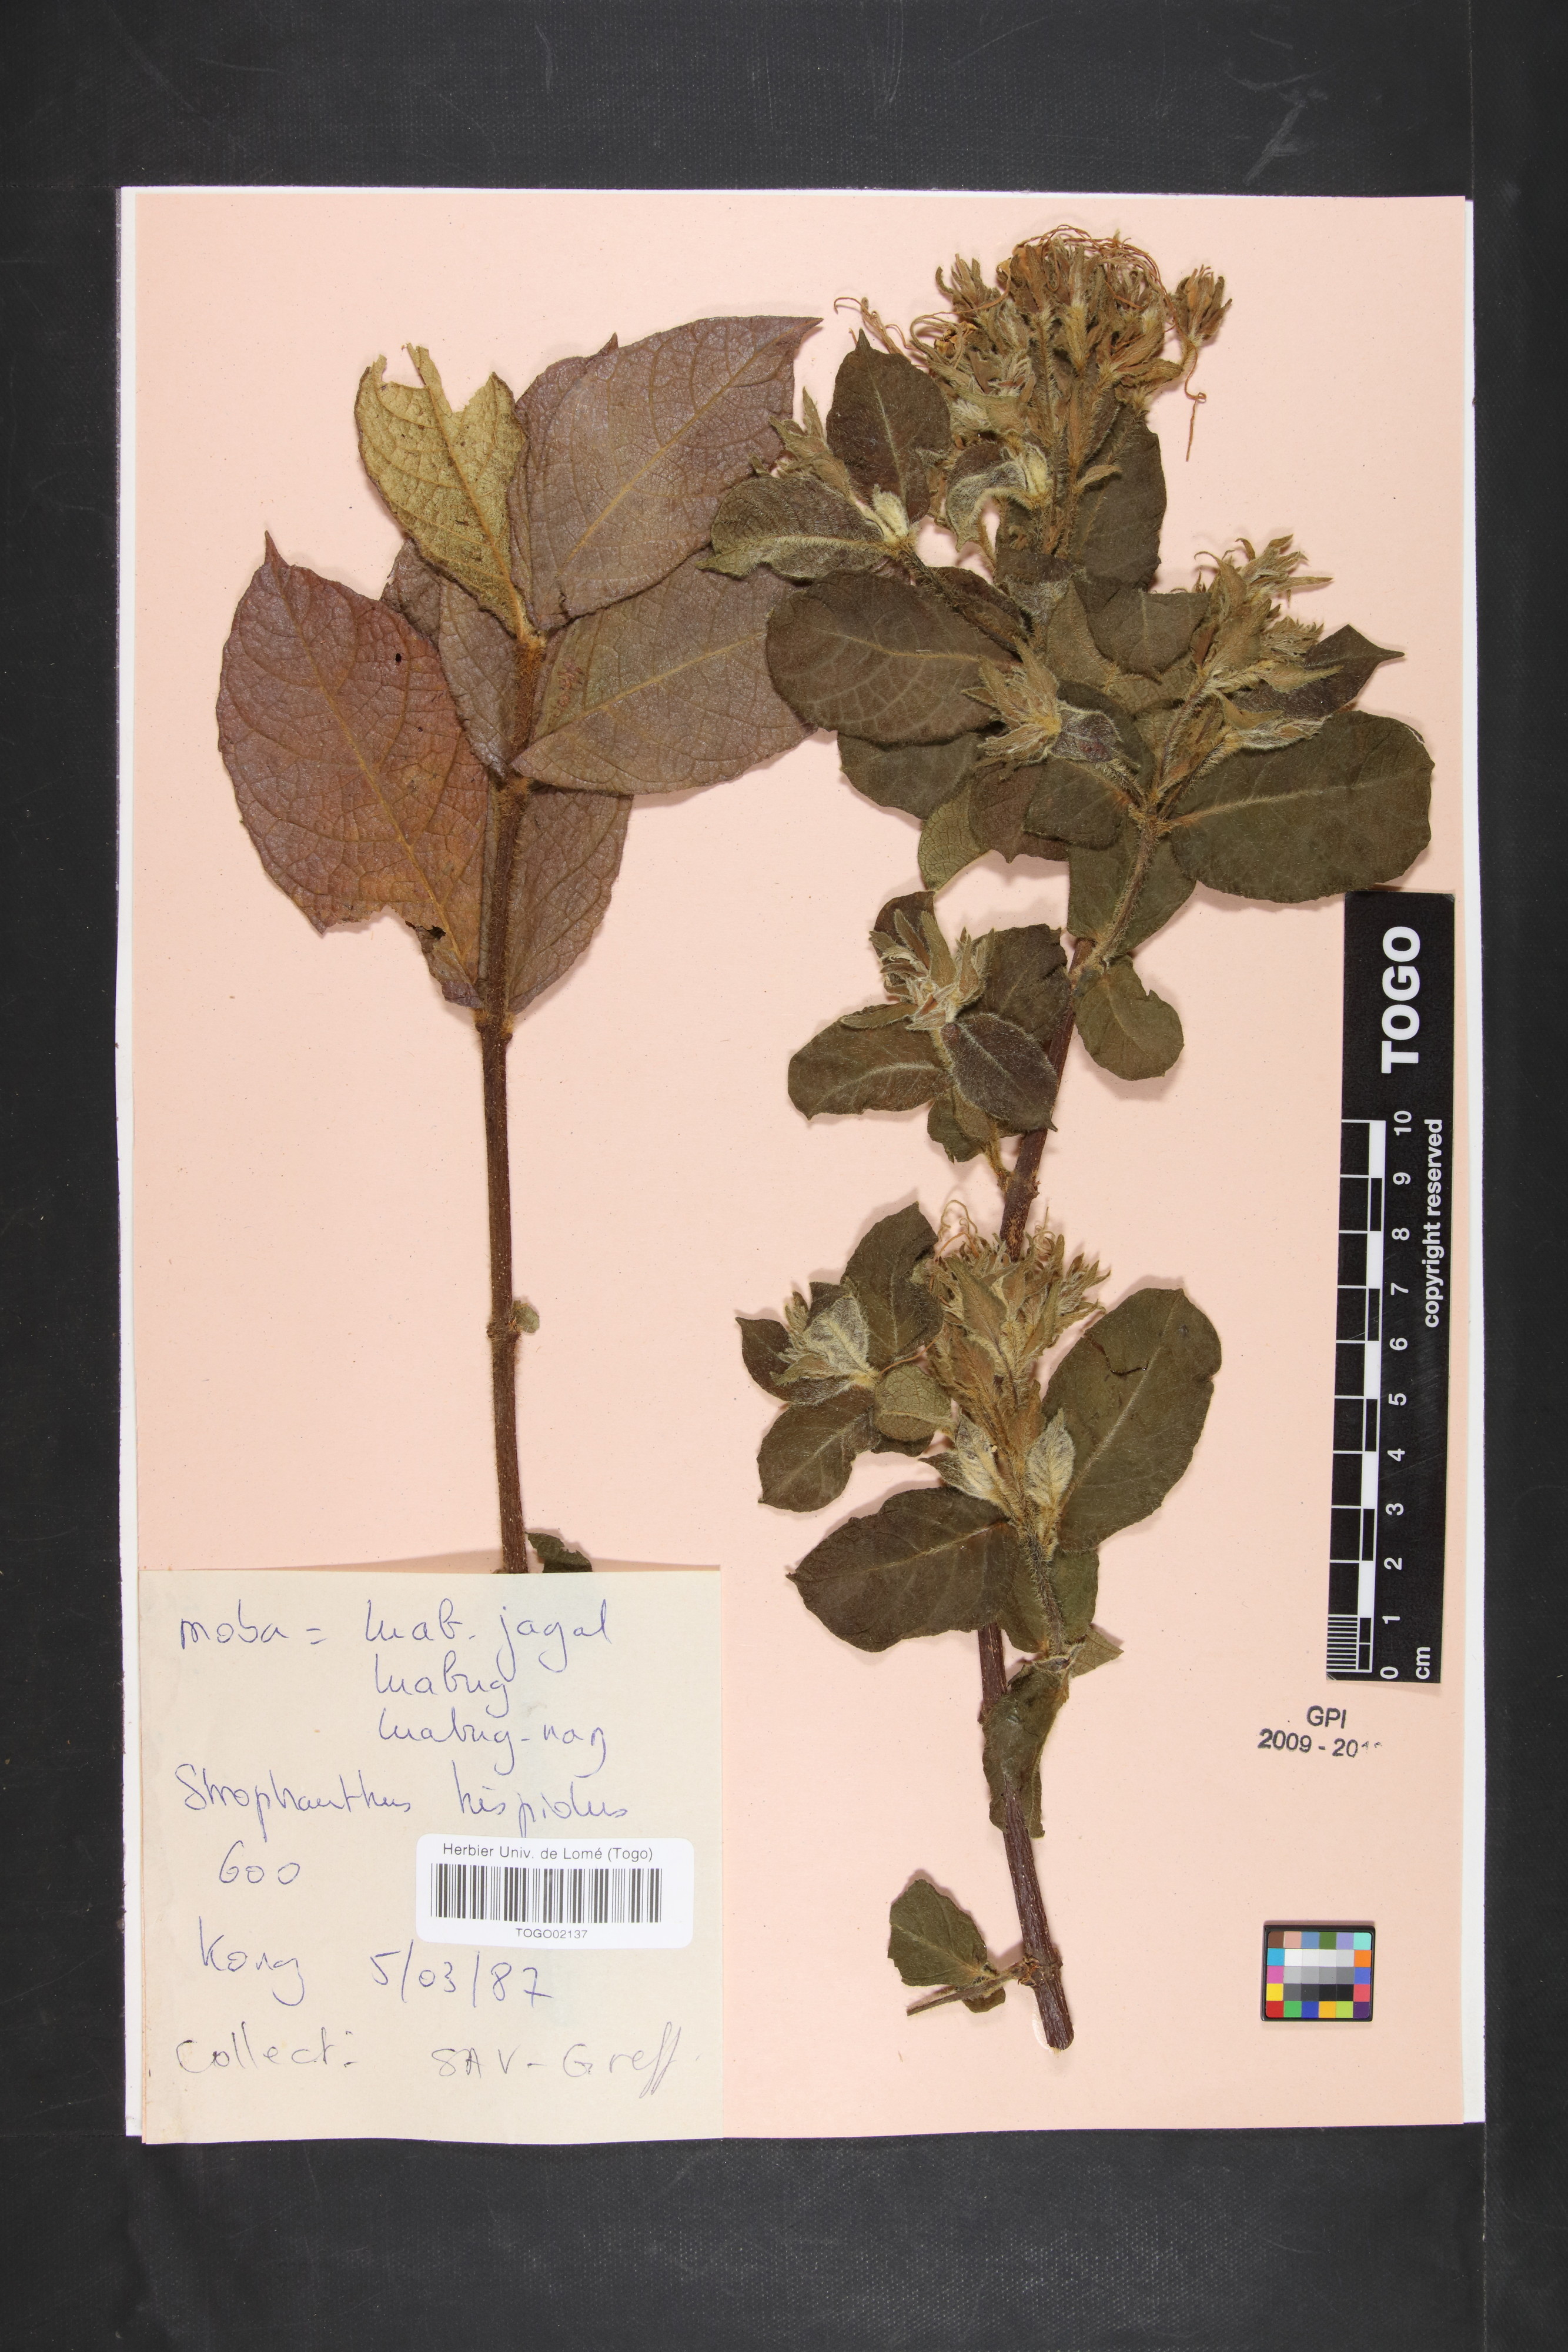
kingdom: Plantae
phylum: Tracheophyta
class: Magnoliopsida
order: Gentianales
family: Apocynaceae
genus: Strophanthus
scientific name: Strophanthus hispidus
